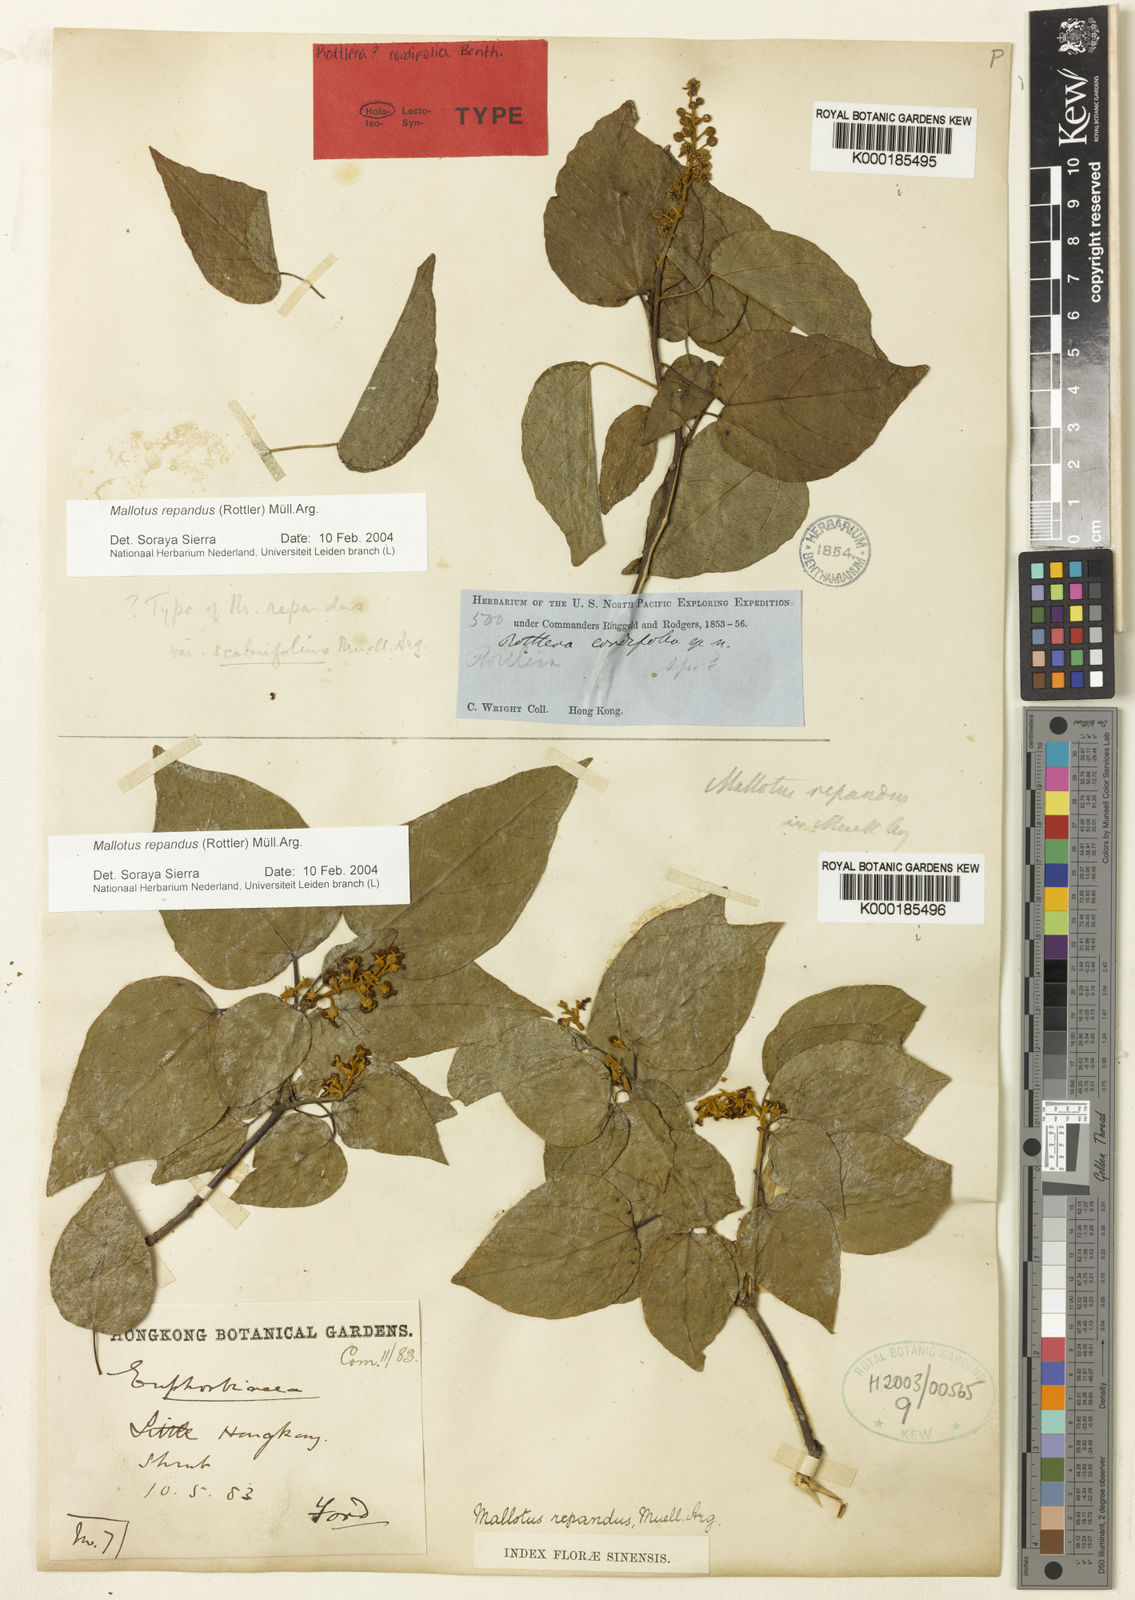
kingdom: Plantae
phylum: Tracheophyta
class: Magnoliopsida
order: Malpighiales
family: Euphorbiaceae
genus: Mallotus
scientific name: Mallotus repandus
